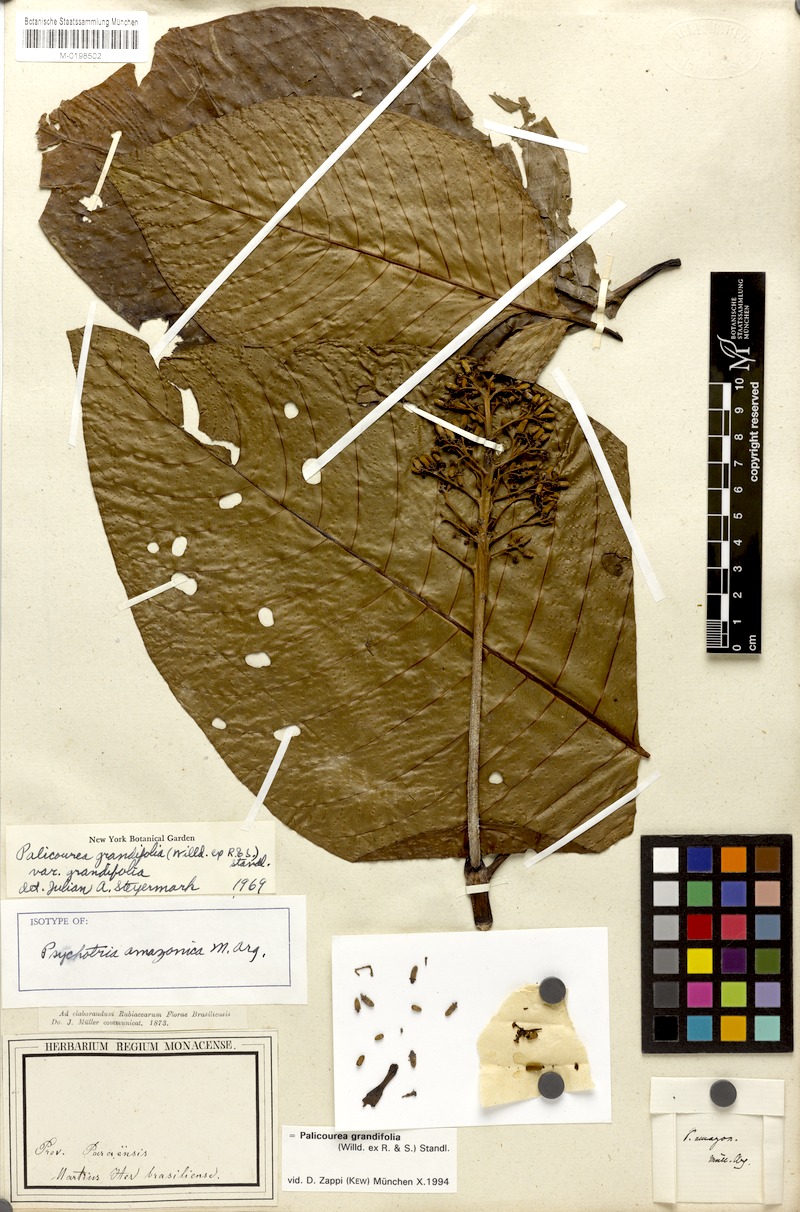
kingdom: Plantae
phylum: Tracheophyta
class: Magnoliopsida
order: Gentianales
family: Rubiaceae
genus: Palicourea
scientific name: Palicourea grandifolia
